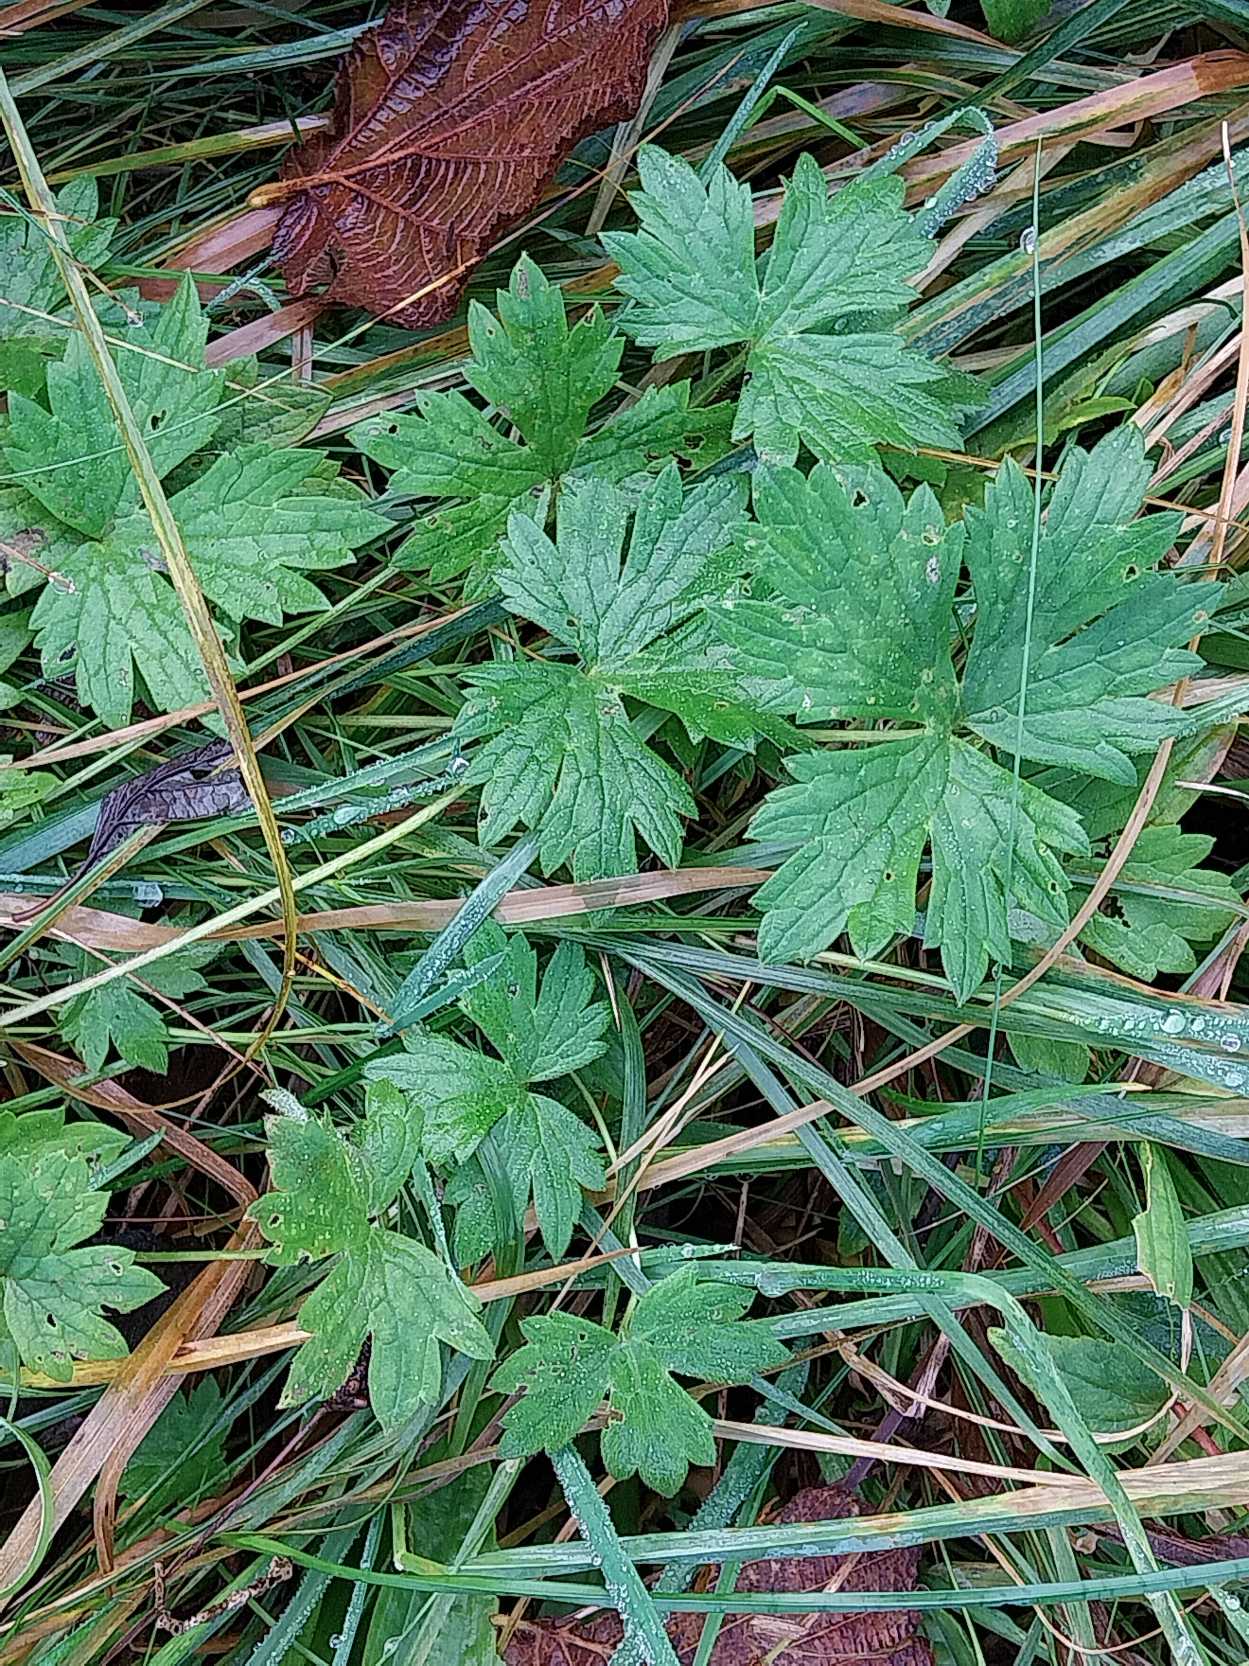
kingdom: Plantae
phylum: Tracheophyta
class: Magnoliopsida
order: Ranunculales
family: Ranunculaceae
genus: Ranunculus
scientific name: Ranunculus acris
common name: Bidende ranunkel
